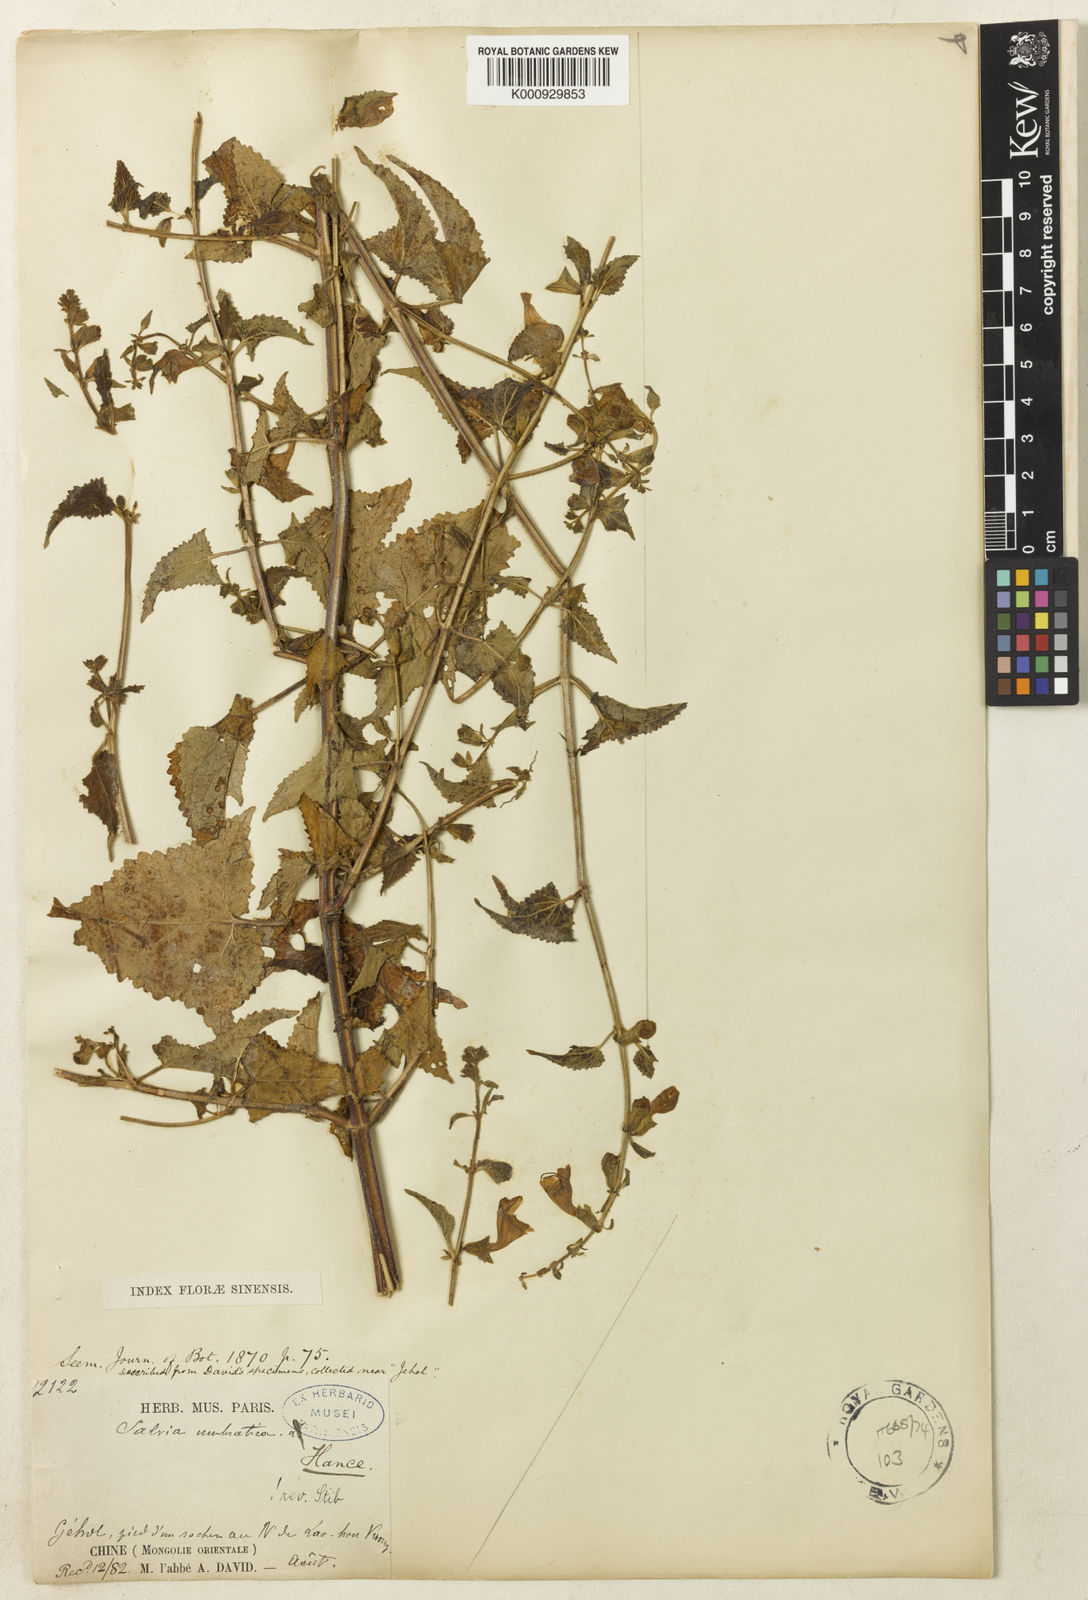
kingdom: Plantae
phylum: Tracheophyta
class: Magnoliopsida
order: Lamiales
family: Lamiaceae
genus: Salvia
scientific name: Salvia umbratica
